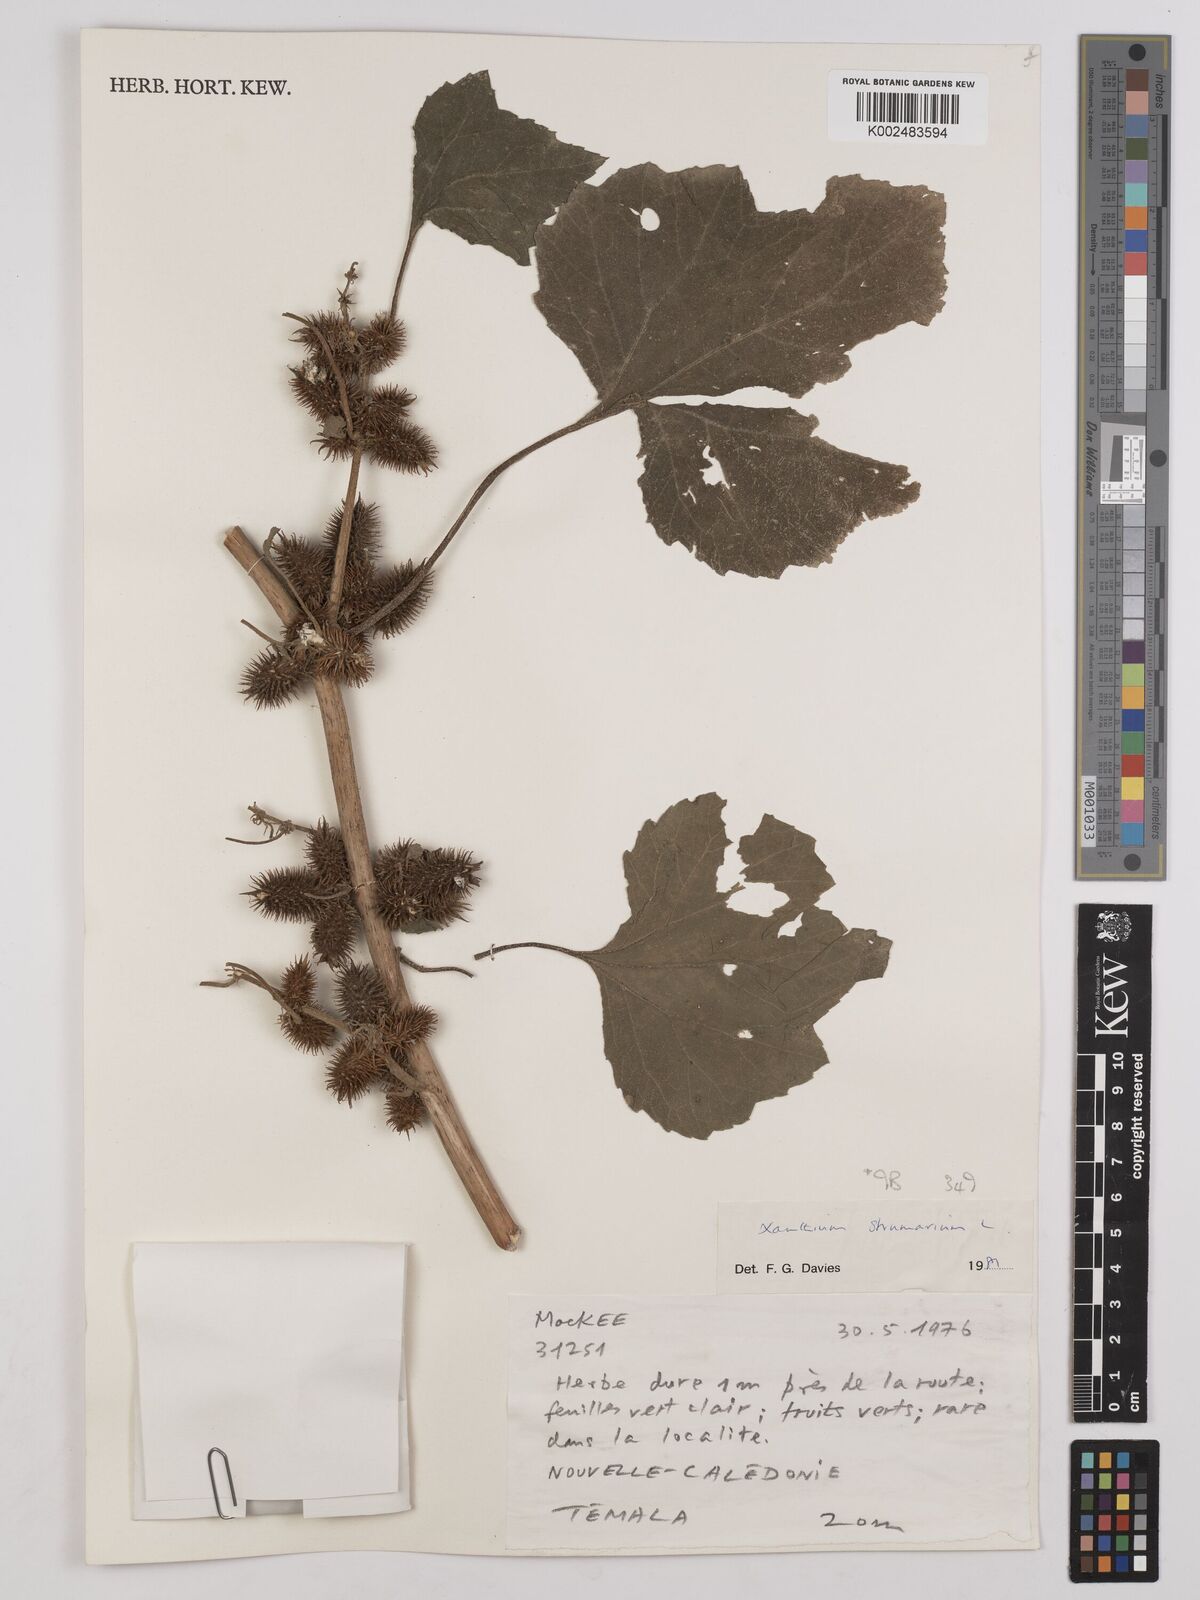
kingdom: Plantae
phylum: Tracheophyta
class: Magnoliopsida
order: Asterales
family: Asteraceae
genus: Xanthium
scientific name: Xanthium strumarium
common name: Rough cocklebur
